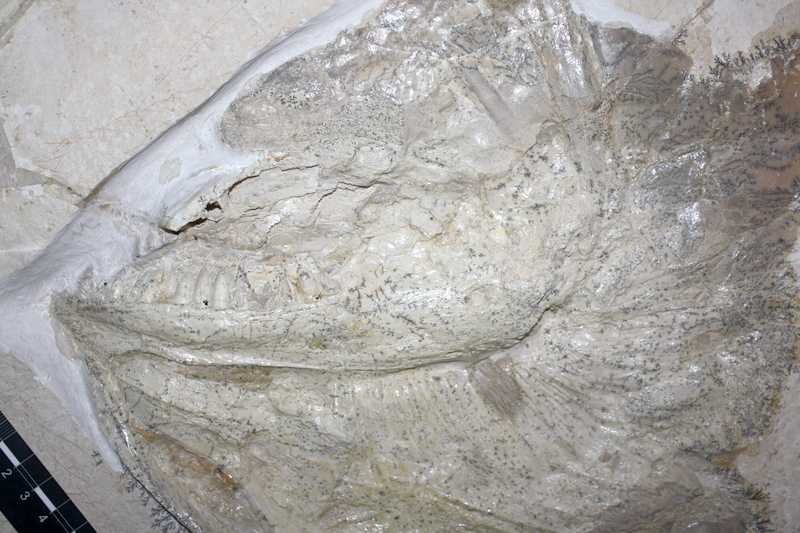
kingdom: Animalia
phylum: Chordata
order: Amiiformes
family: Caturidae
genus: Caturus
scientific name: Caturus giganteus
